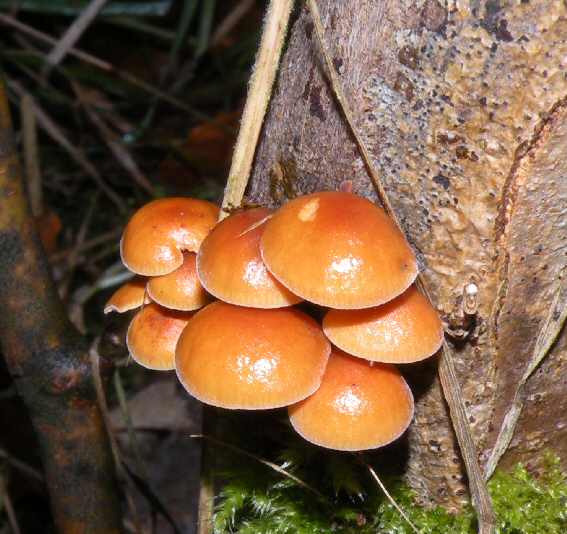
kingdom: Fungi
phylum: Basidiomycota
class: Agaricomycetes
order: Agaricales
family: Physalacriaceae
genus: Flammulina
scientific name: Flammulina velutipes
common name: gul fløjlsfod
